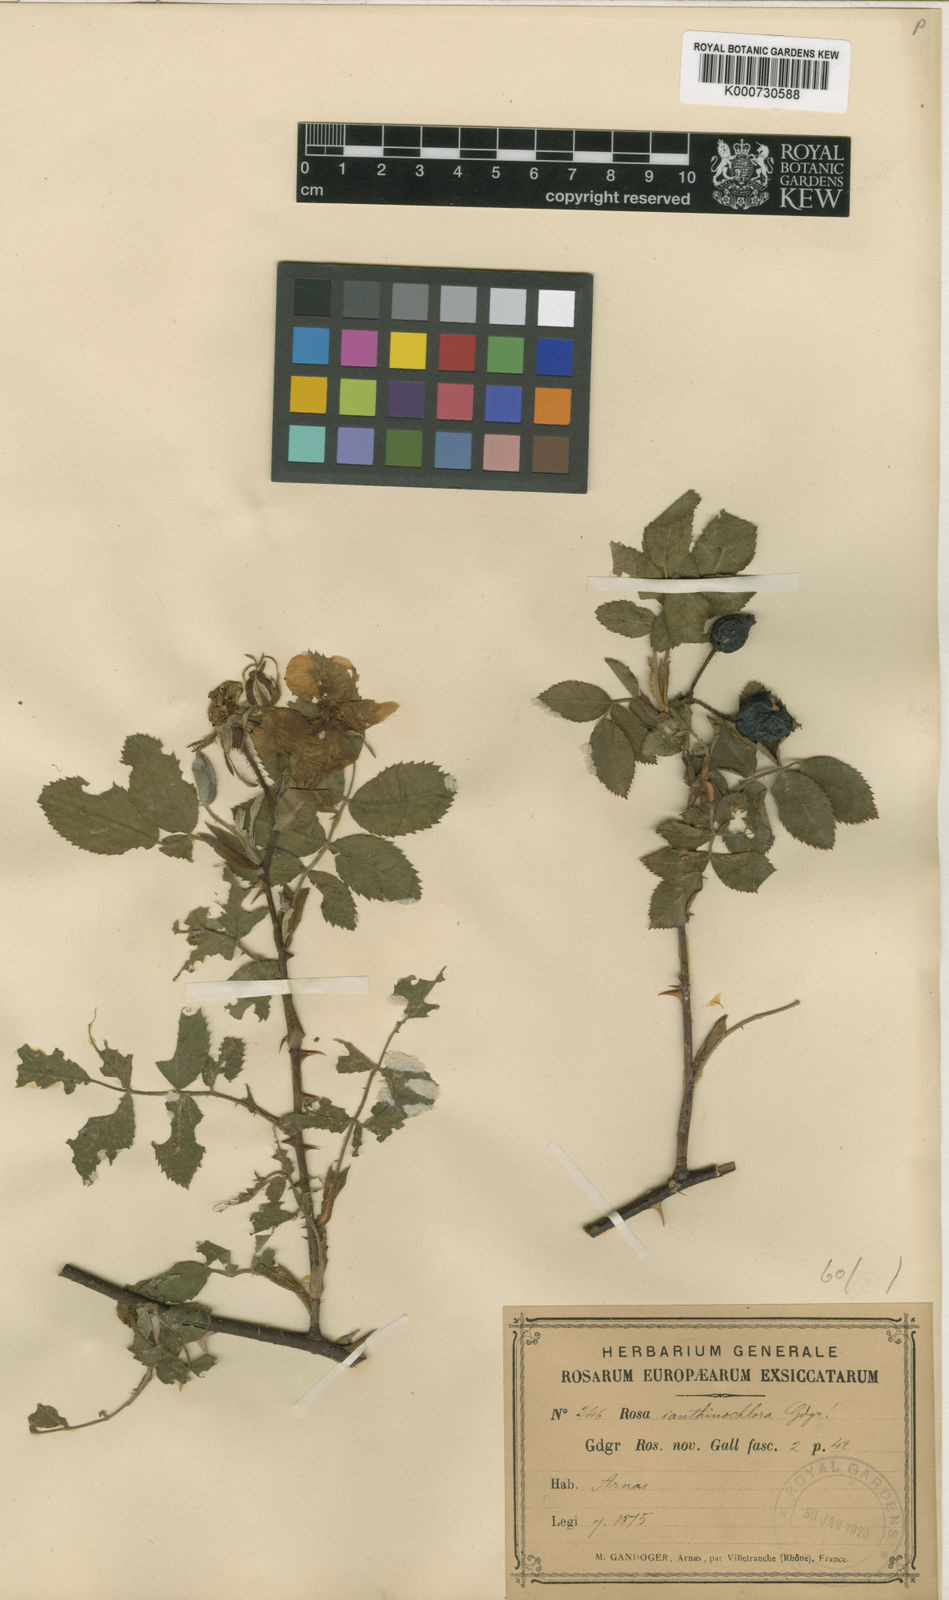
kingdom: Plantae
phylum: Tracheophyta
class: Magnoliopsida
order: Rosales
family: Rosaceae
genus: Rosa
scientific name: Rosa tomentosa
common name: Downy rose
